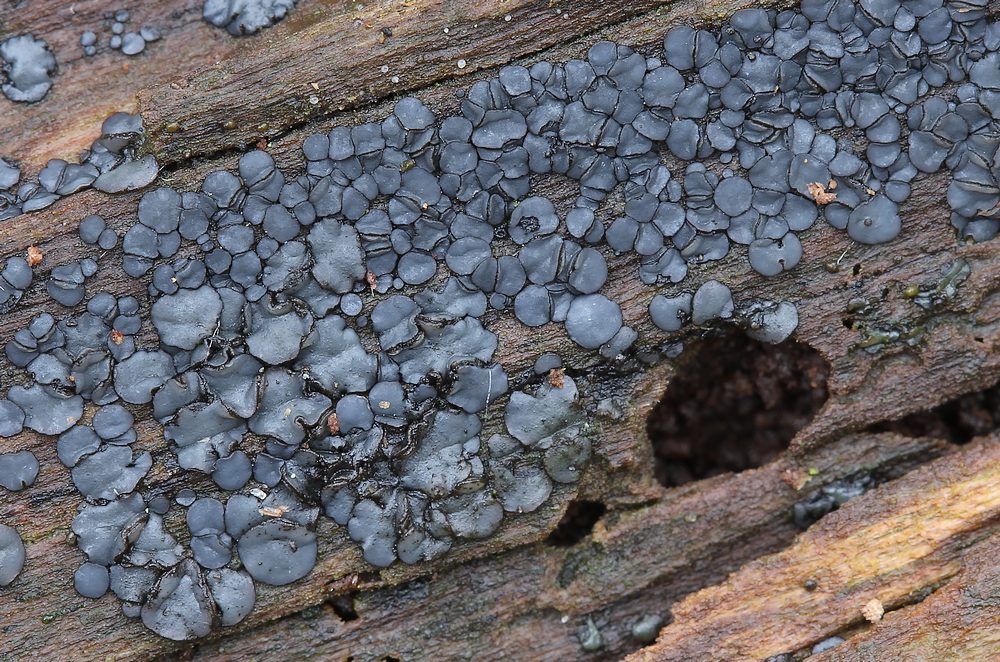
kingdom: Fungi
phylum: Ascomycota
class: Leotiomycetes
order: Helotiales
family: Mollisiaceae
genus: Mollisia
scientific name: Mollisia
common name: gråskive
